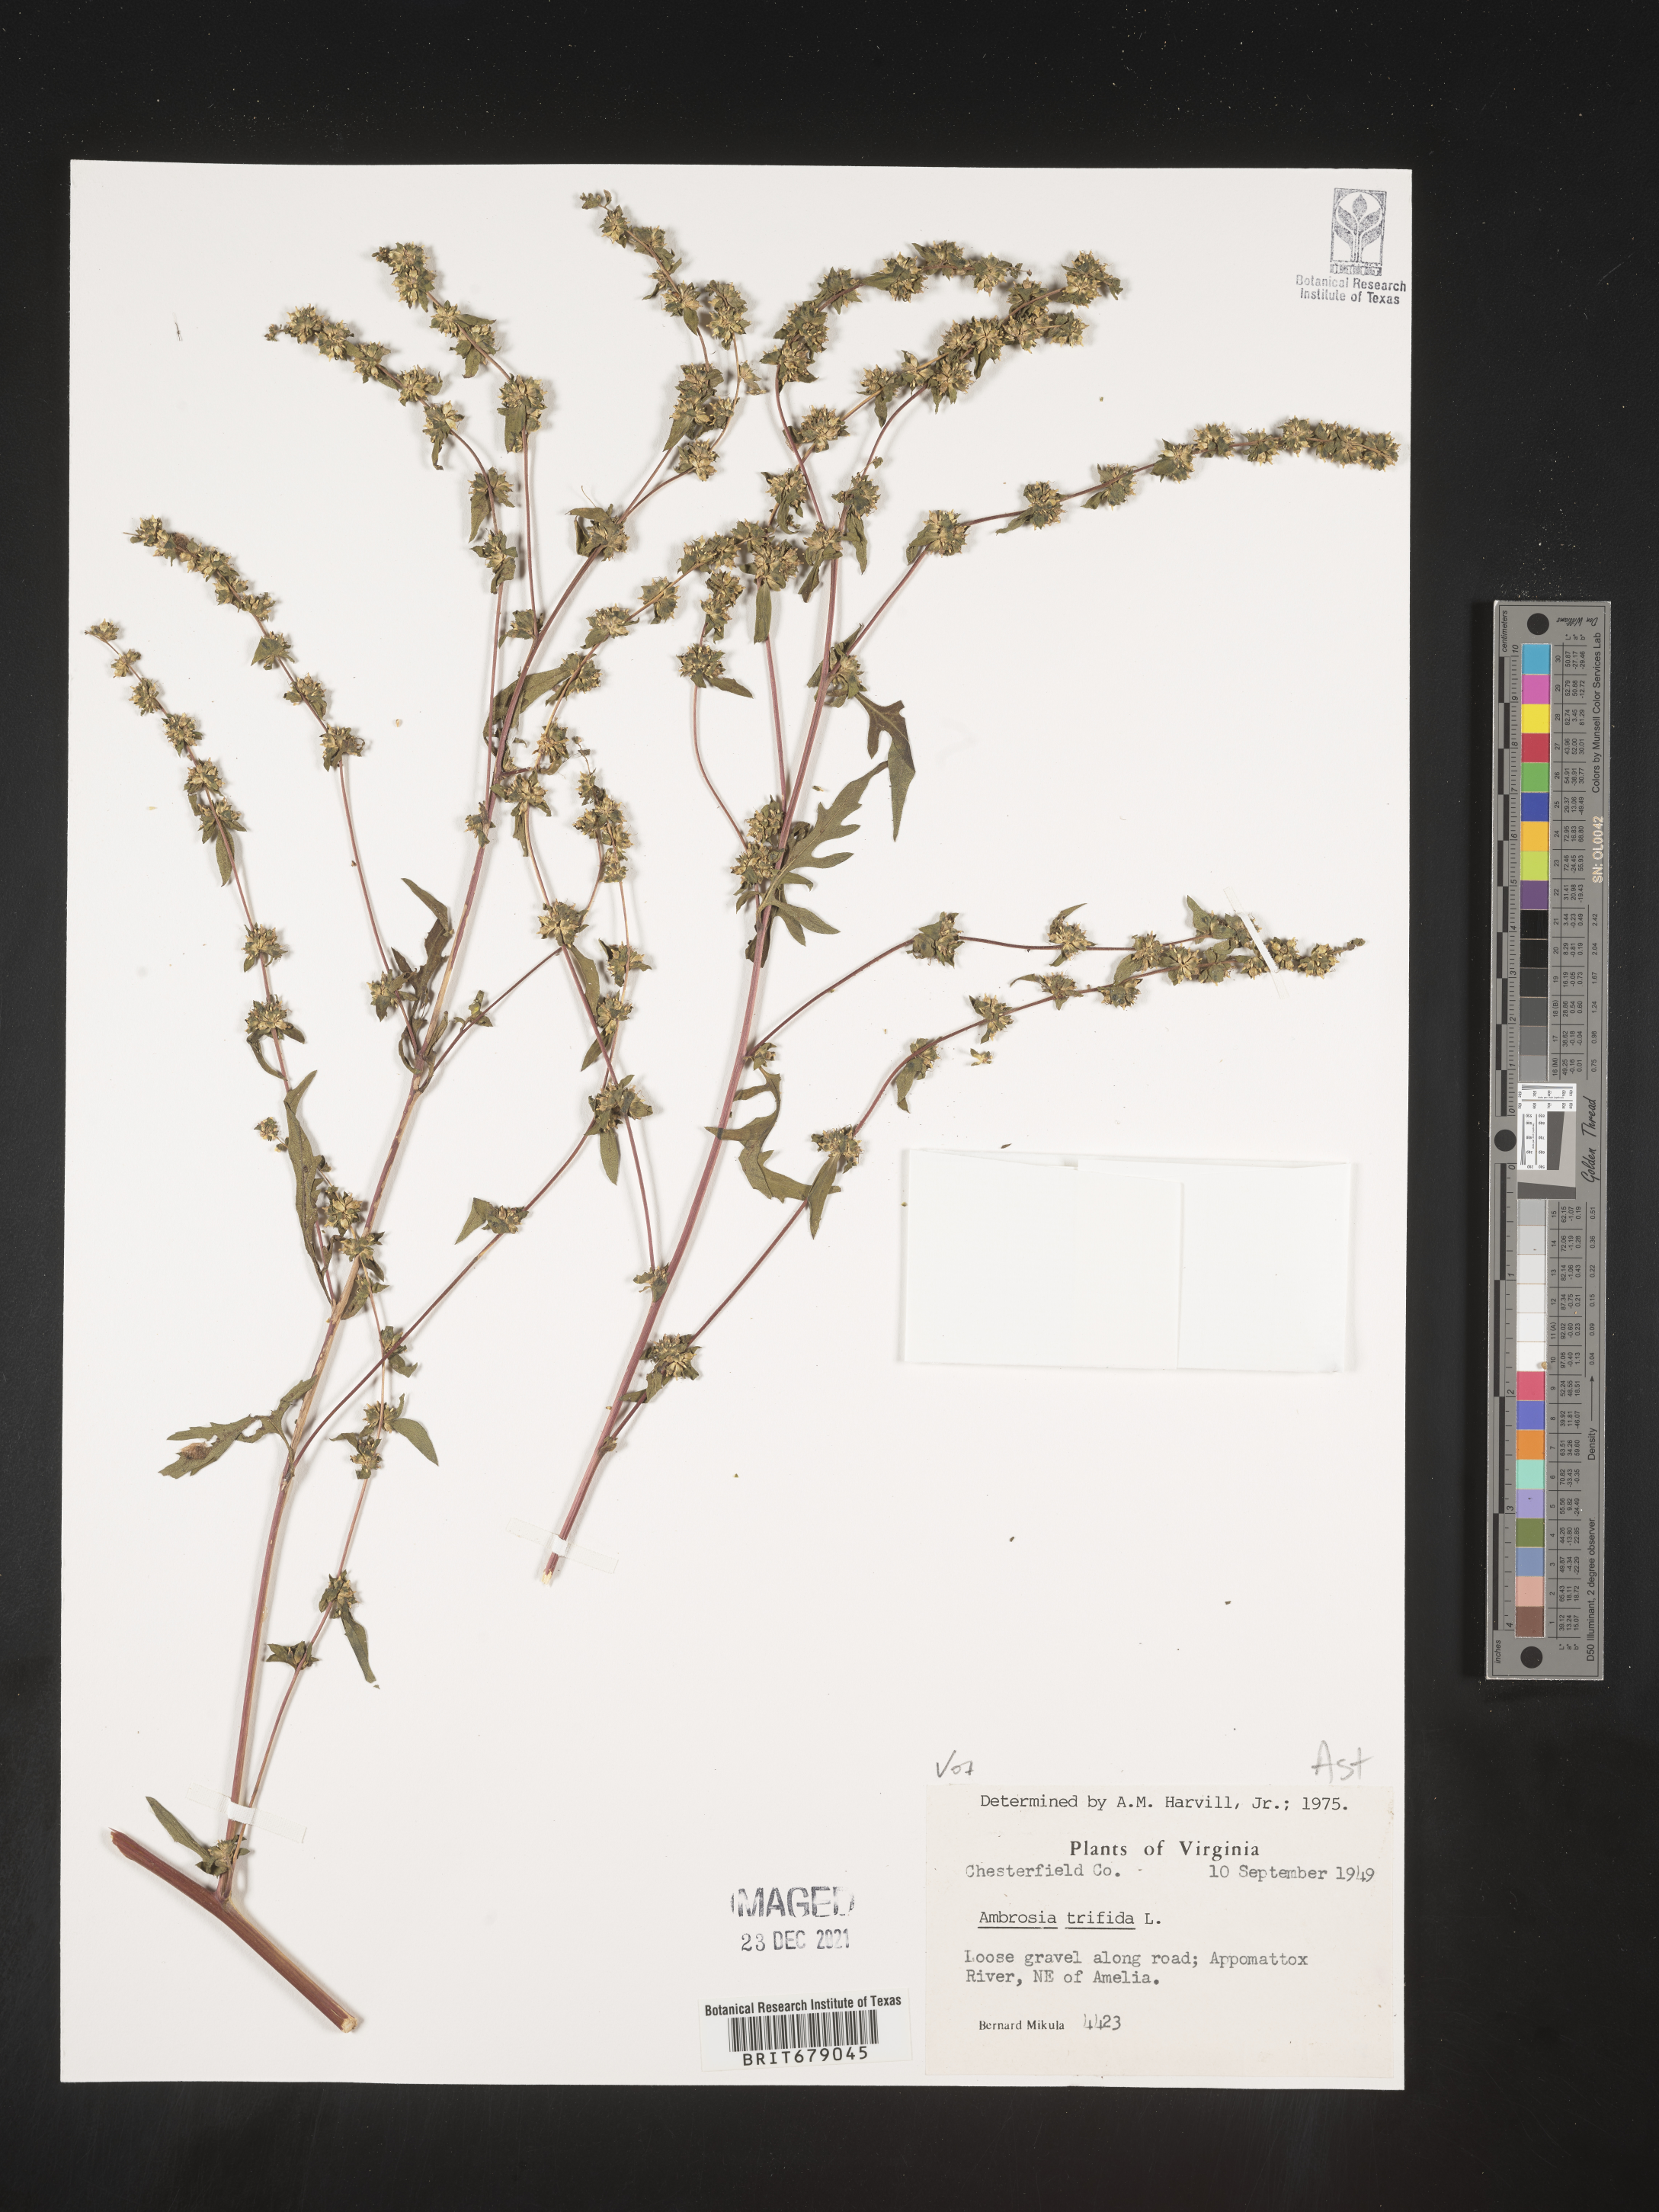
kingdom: Plantae
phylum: Tracheophyta
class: Magnoliopsida
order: Asterales
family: Asteraceae
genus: Ambrosia
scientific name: Ambrosia trifida
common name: Giant ragweed
